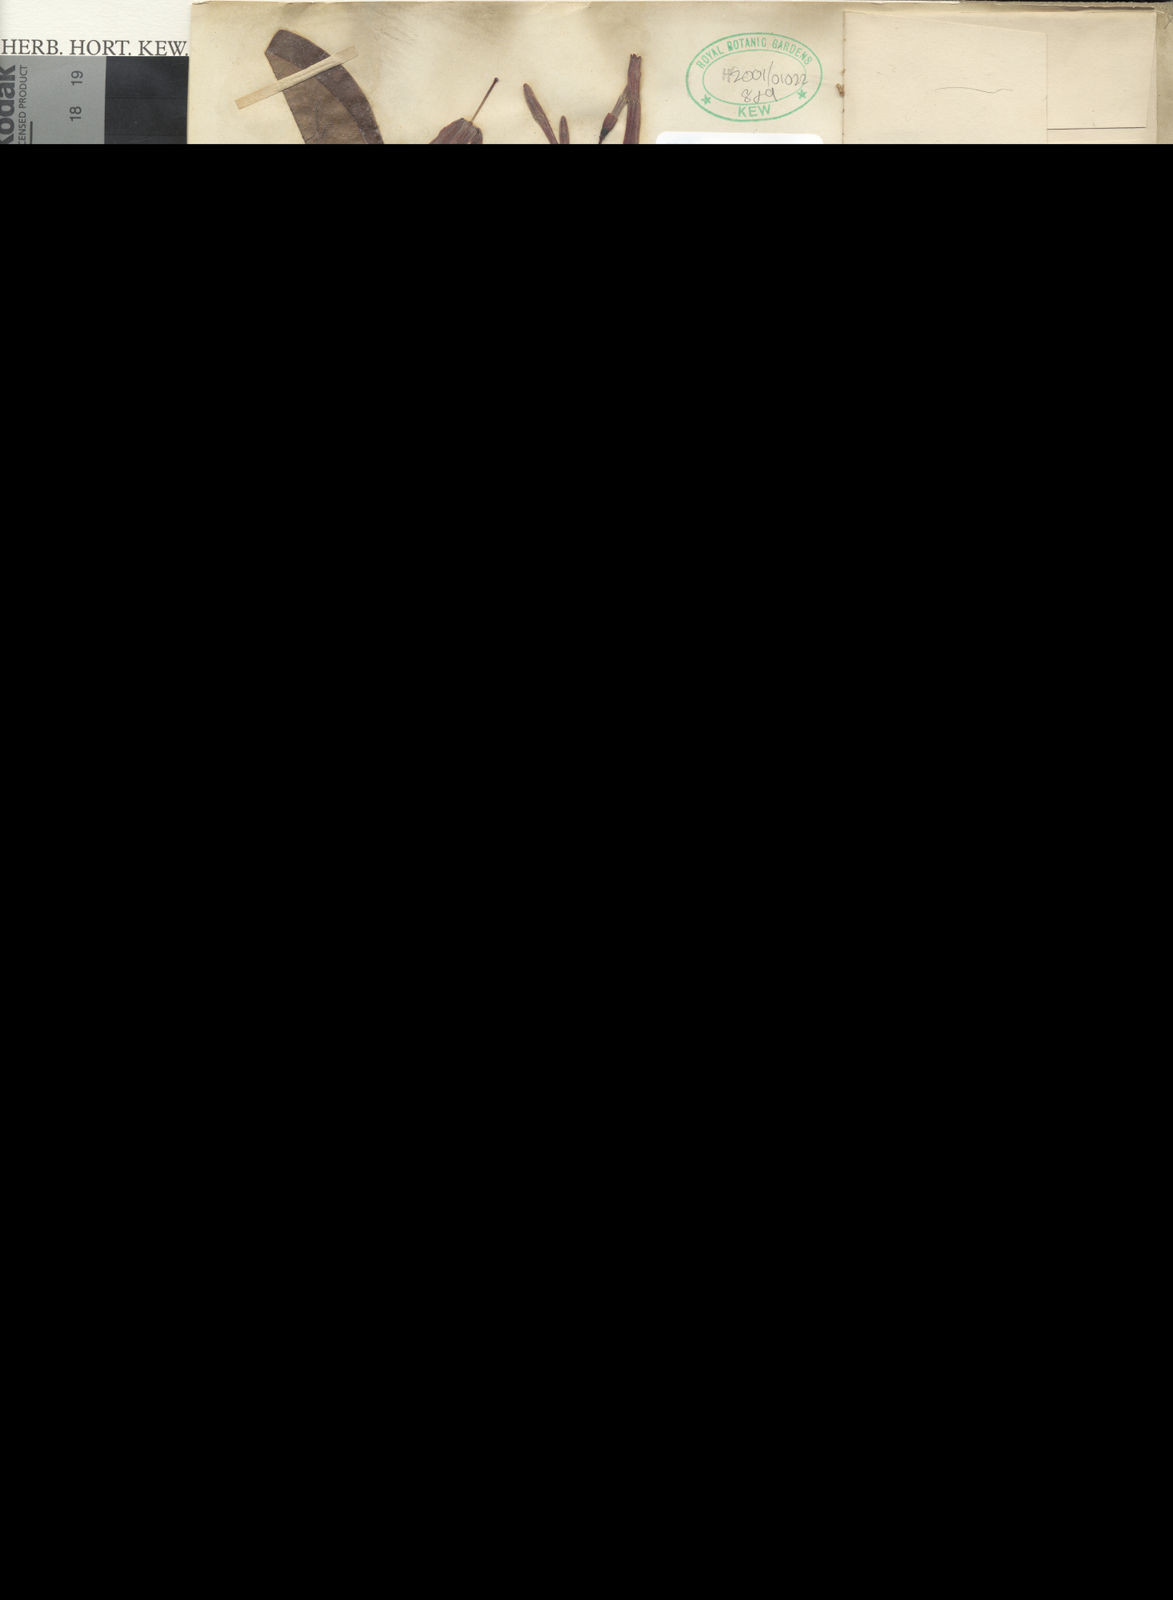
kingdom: Plantae
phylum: Tracheophyta
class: Magnoliopsida
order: Gentianales
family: Rubiaceae
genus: Retiniphyllum
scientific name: Retiniphyllum laxiflorum
